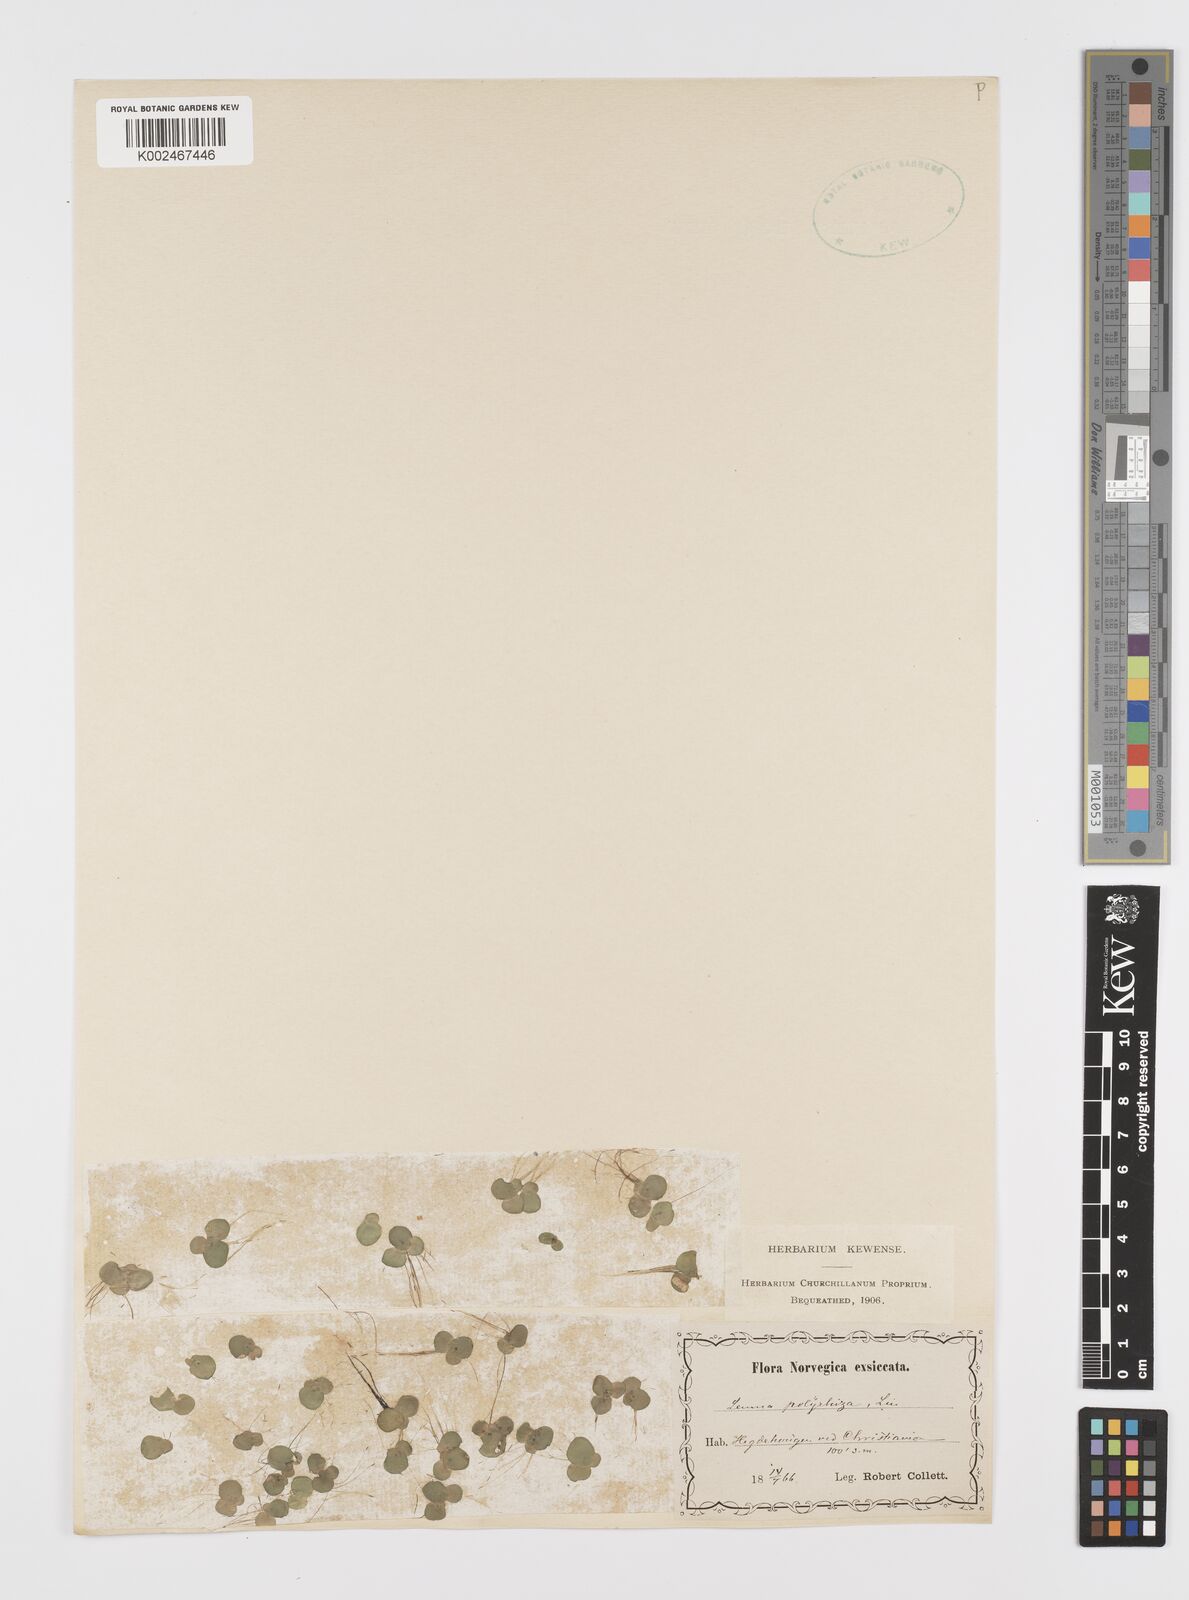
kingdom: Plantae
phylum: Tracheophyta
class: Liliopsida
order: Alismatales
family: Araceae
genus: Spirodela
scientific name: Spirodela polyrhiza
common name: Great duckweed
